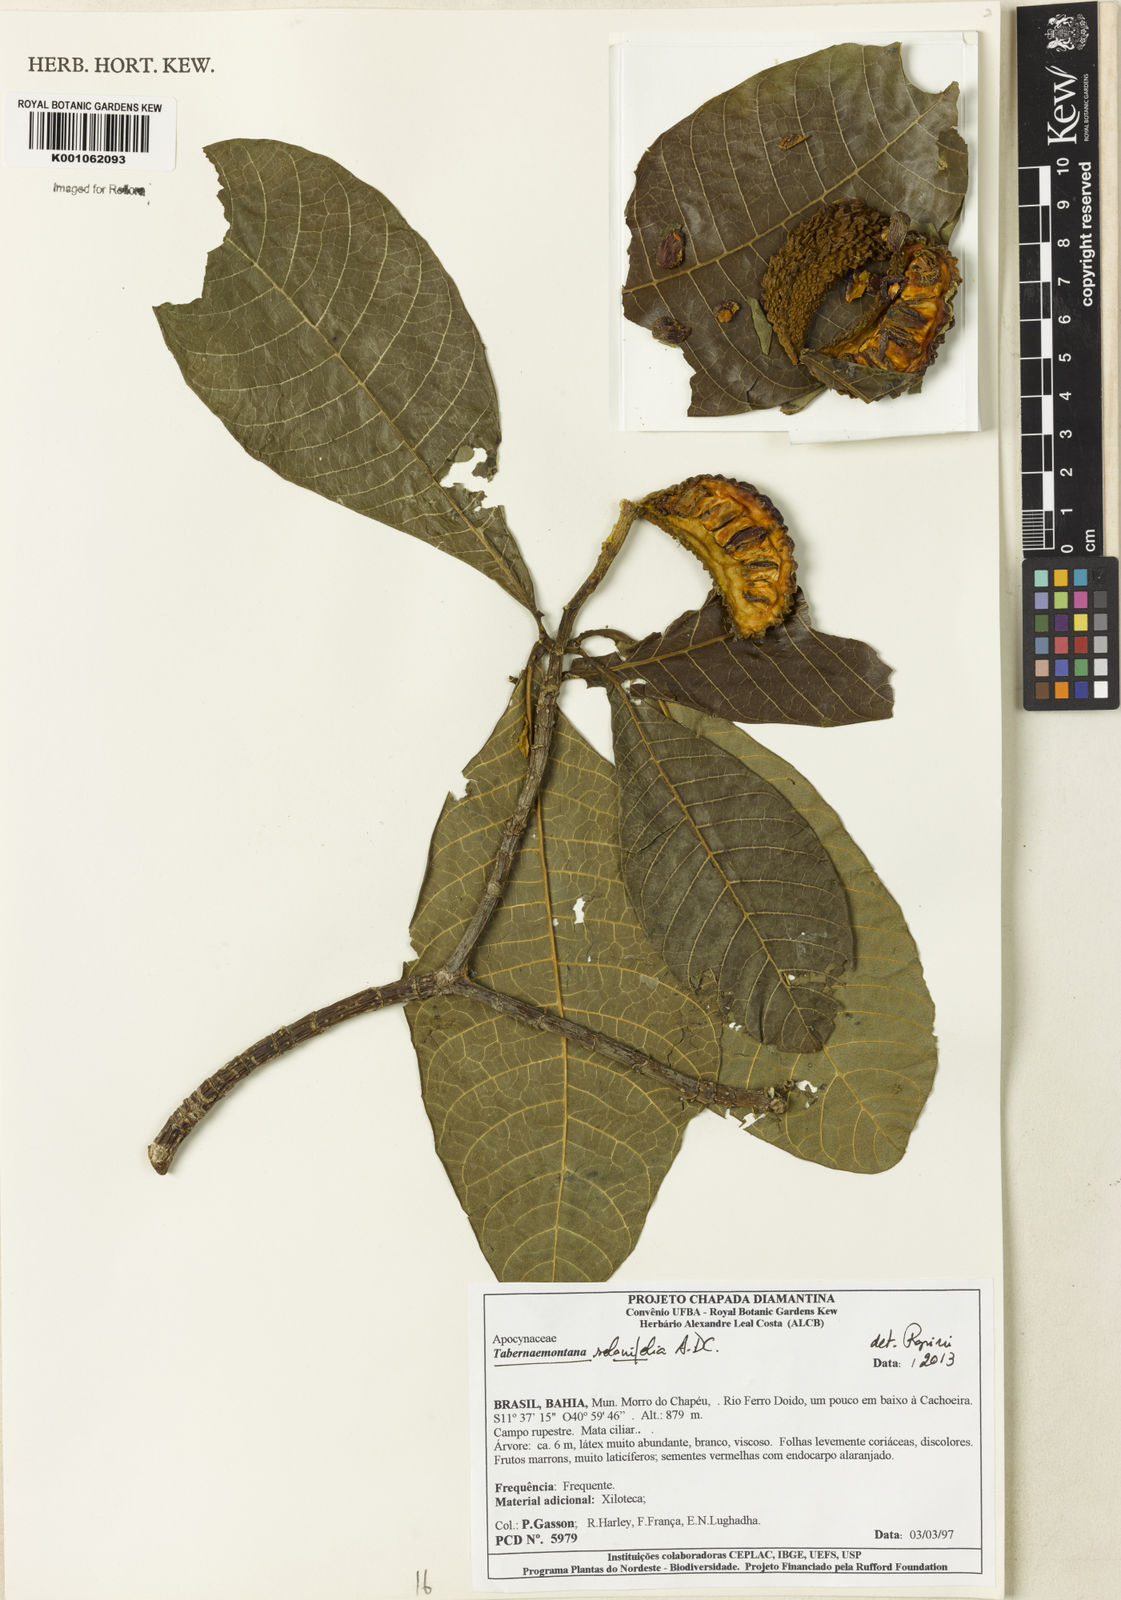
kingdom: Plantae
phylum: Tracheophyta
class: Magnoliopsida
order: Gentianales
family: Apocynaceae
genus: Tabernaemontana
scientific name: Tabernaemontana solanifolia
